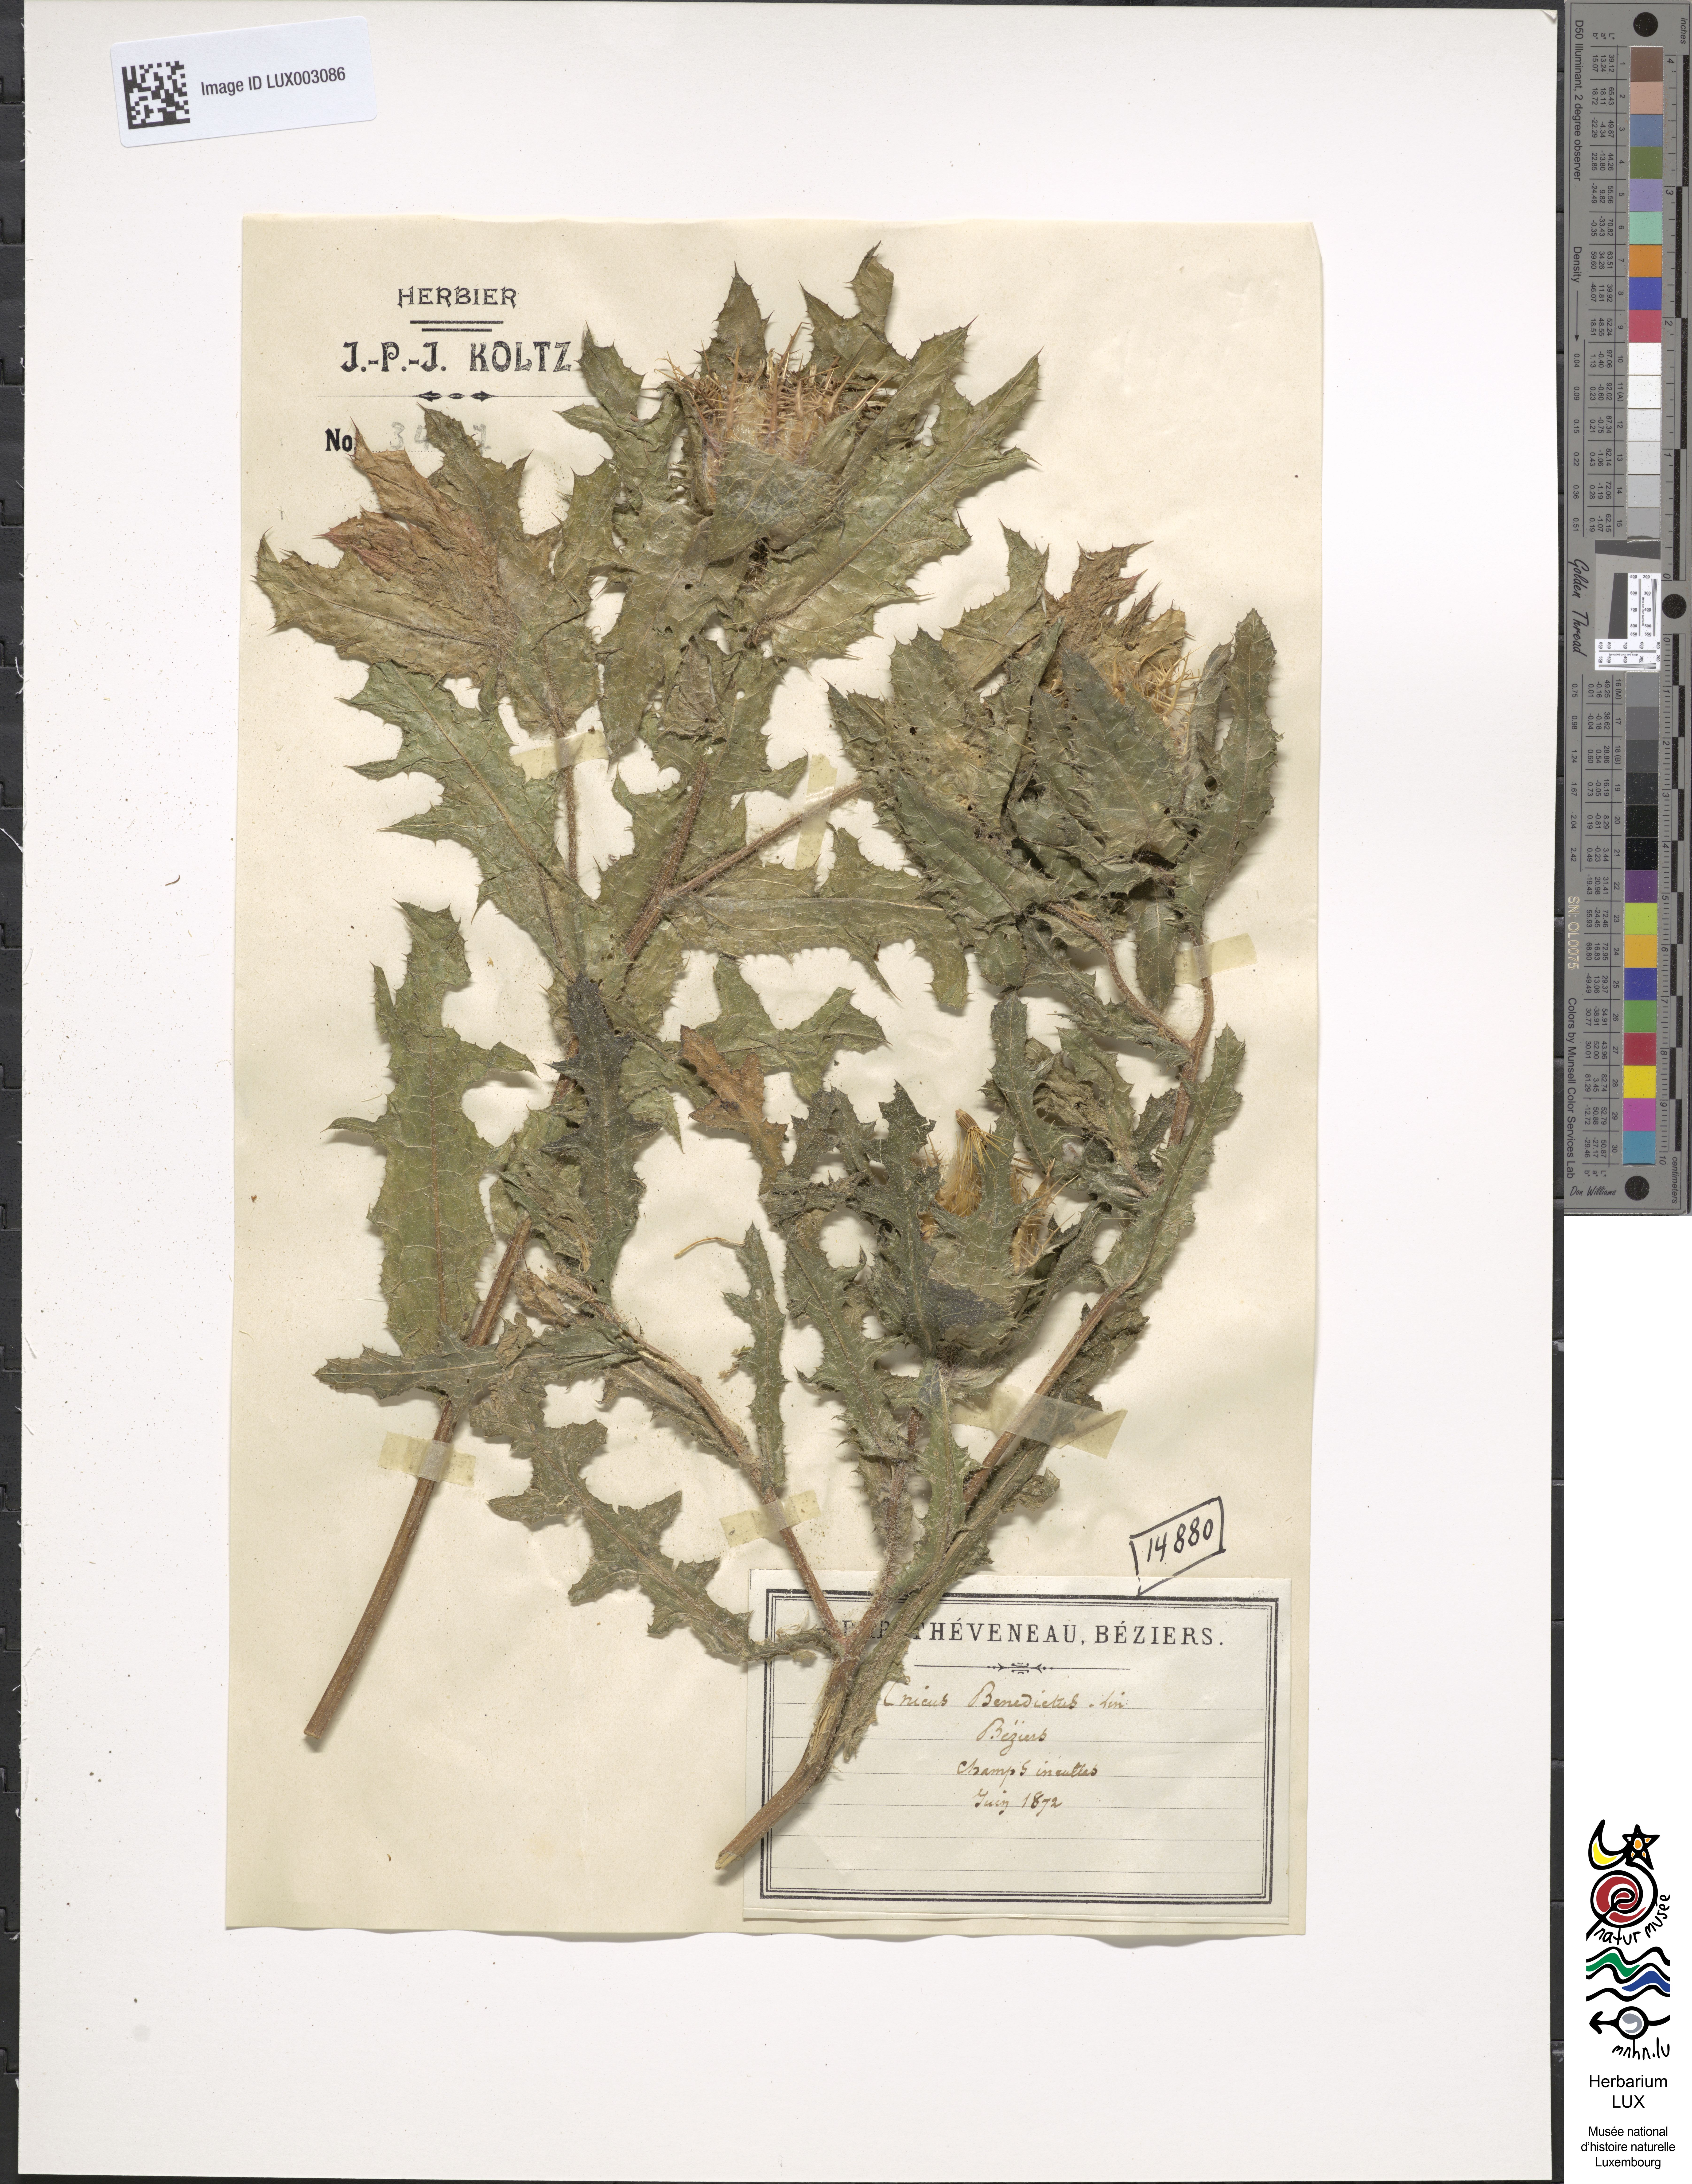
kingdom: Plantae
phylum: Tracheophyta
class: Magnoliopsida
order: Asterales
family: Asteraceae
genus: Centaurea
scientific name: Centaurea benedicta
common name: Blessed thistle
